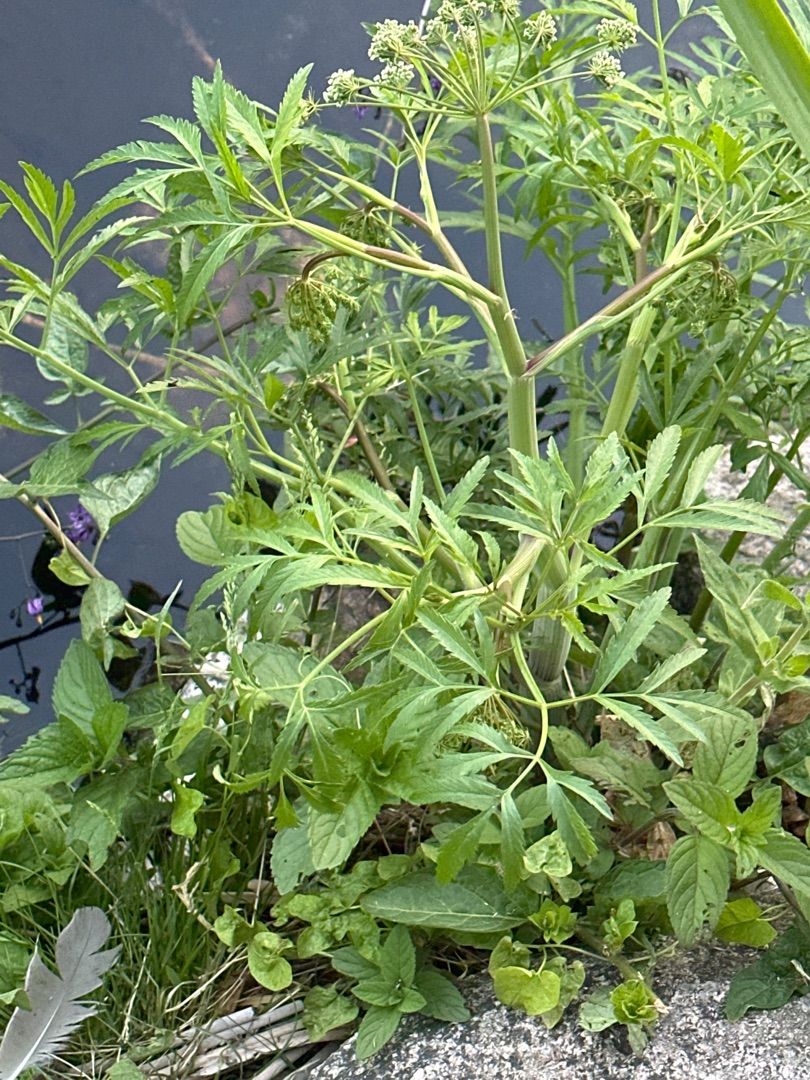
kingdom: Plantae
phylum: Tracheophyta
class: Magnoliopsida
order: Apiales
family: Apiaceae
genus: Cicuta
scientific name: Cicuta virosa
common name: Gifttyde
